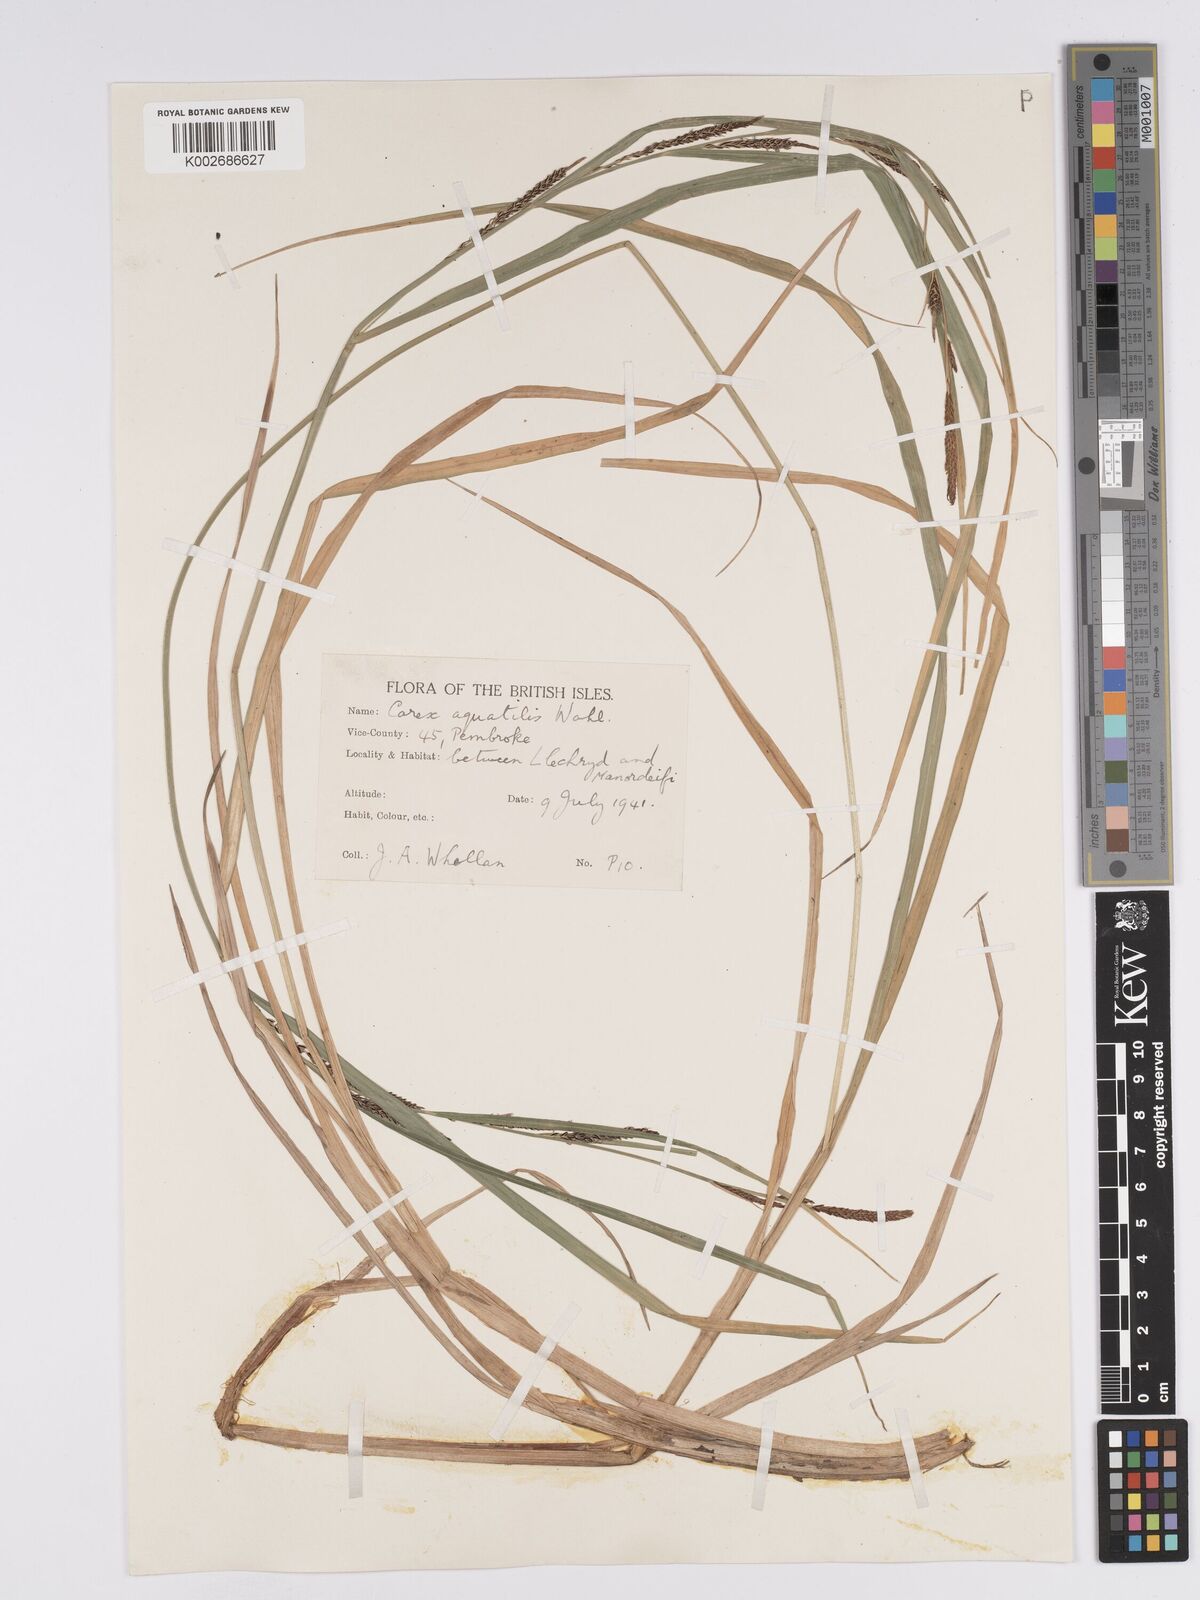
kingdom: Plantae
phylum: Tracheophyta
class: Liliopsida
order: Poales
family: Cyperaceae
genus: Carex
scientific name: Carex aquatilis
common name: Water sedge
